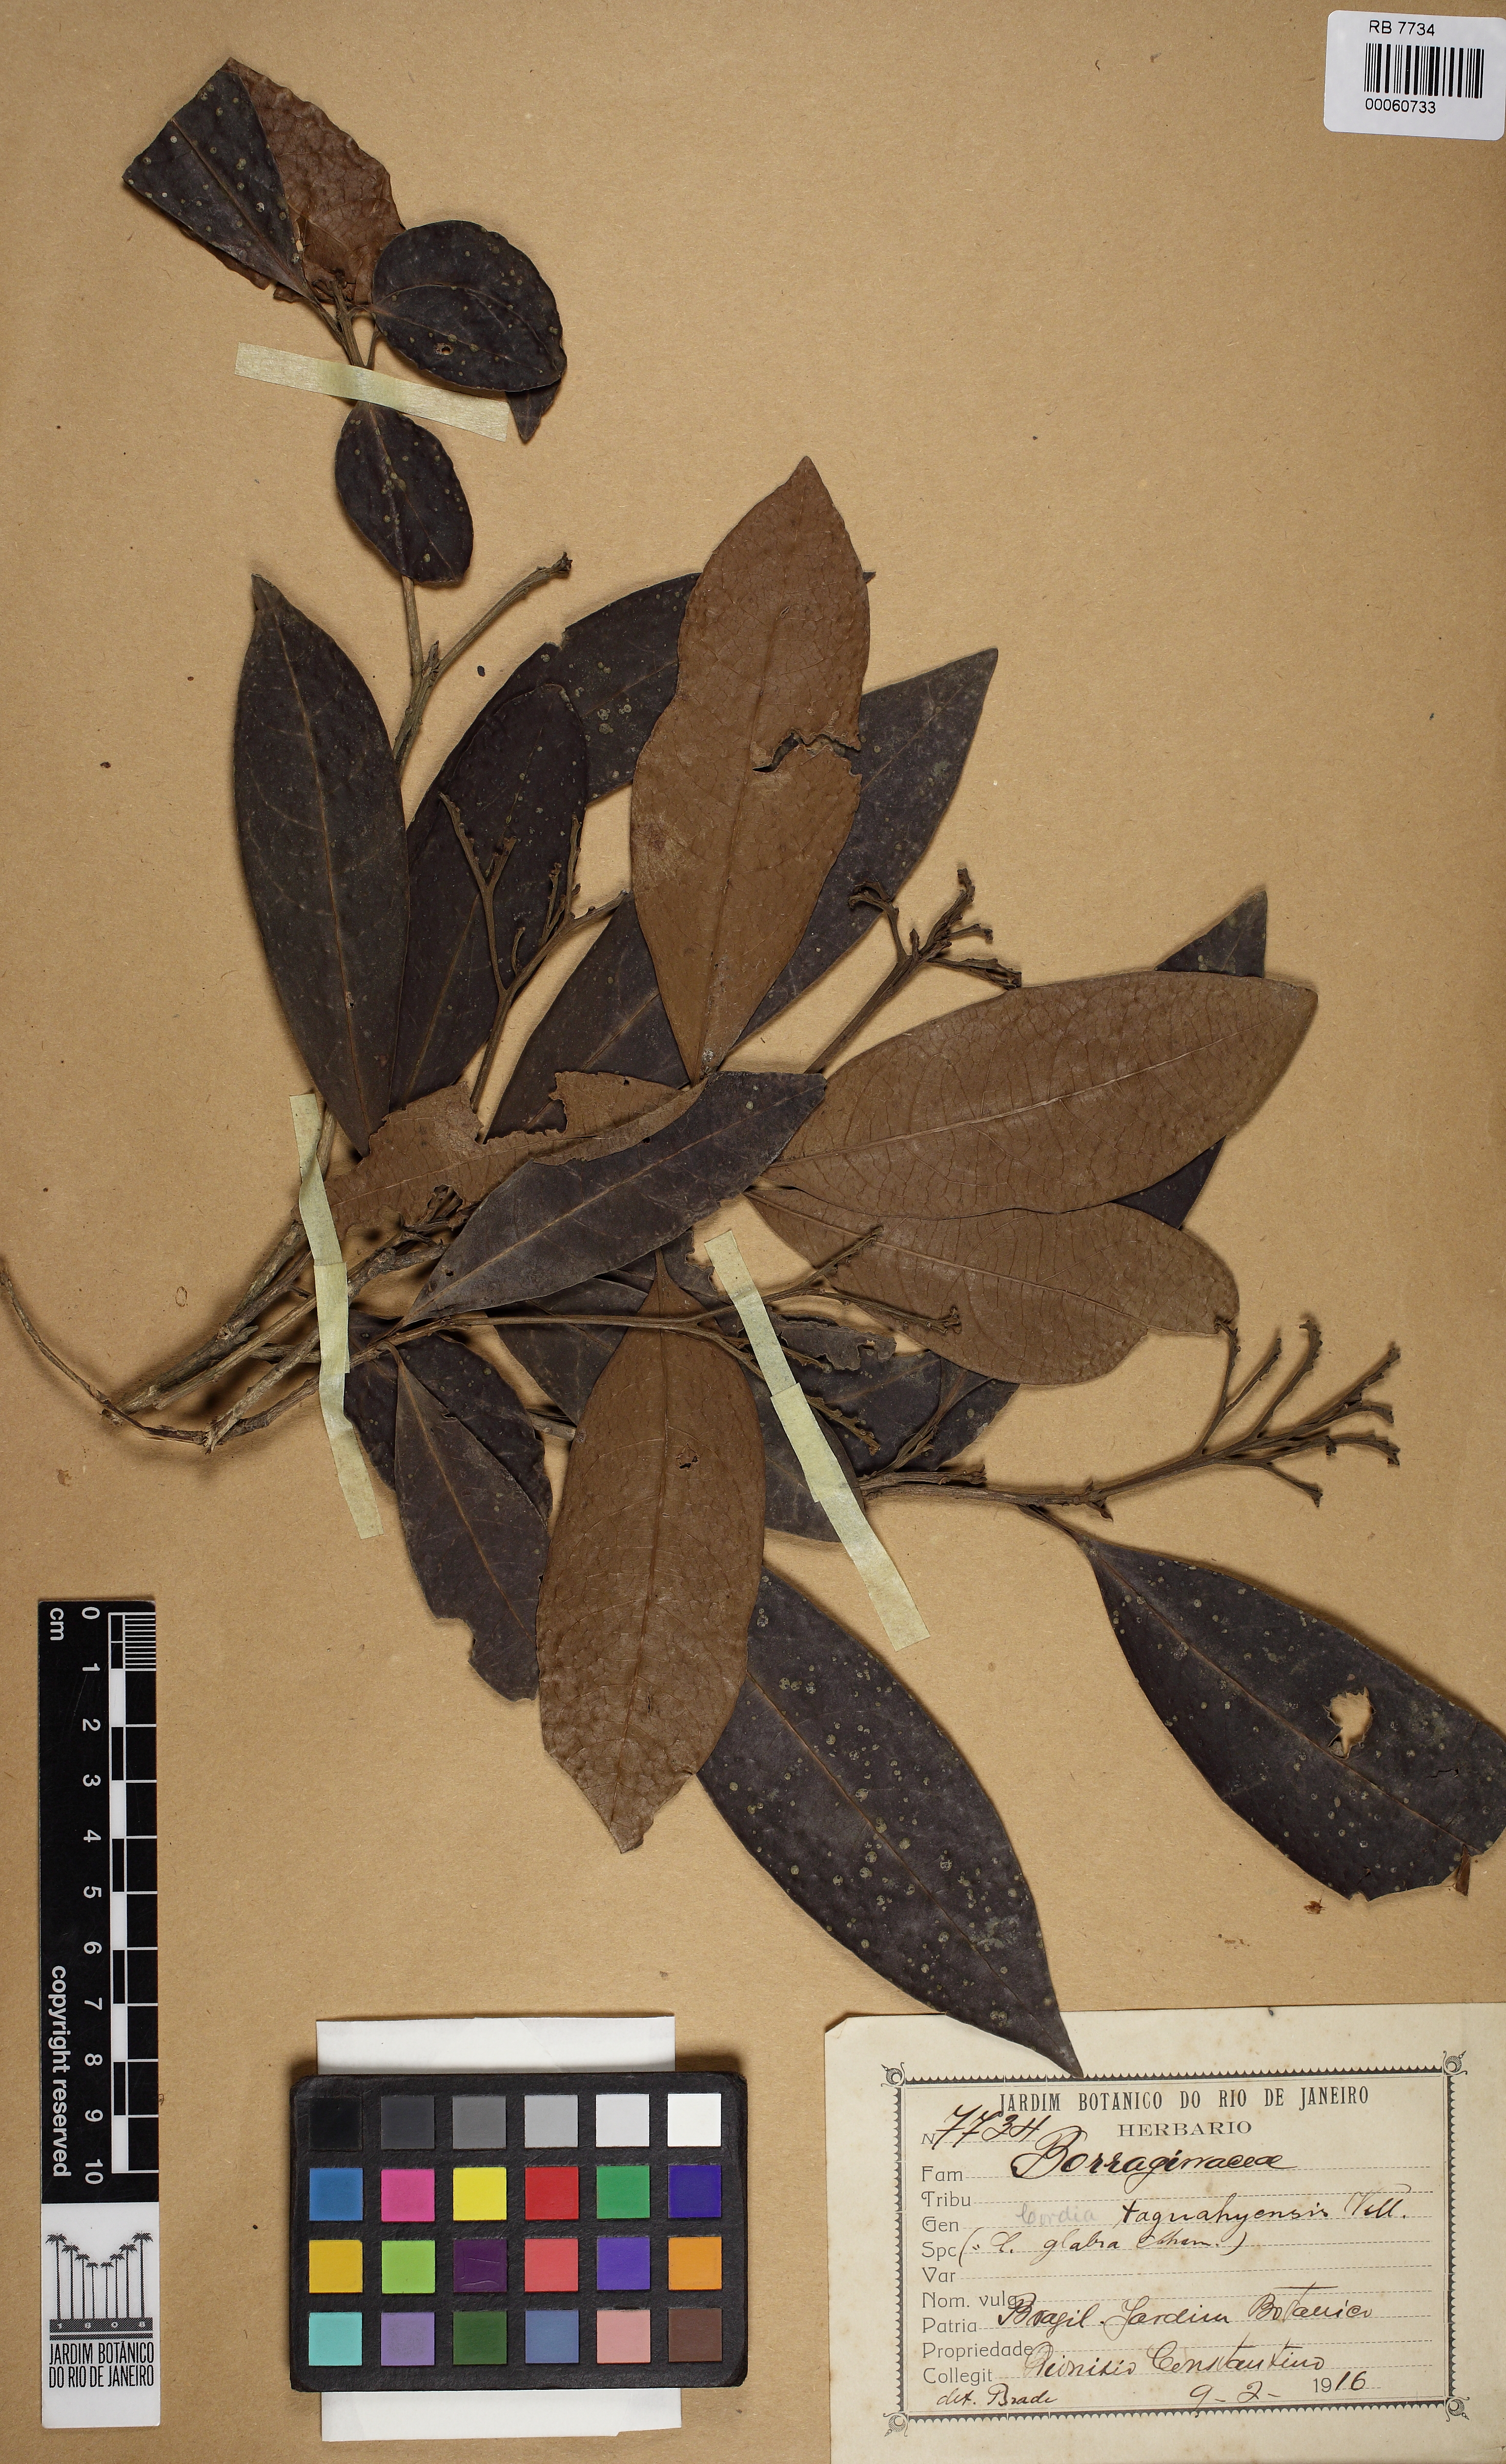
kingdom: Plantae
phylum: Tracheophyta
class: Magnoliopsida
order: Boraginales
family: Cordiaceae
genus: Cordia
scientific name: Cordia taguahuyensis
